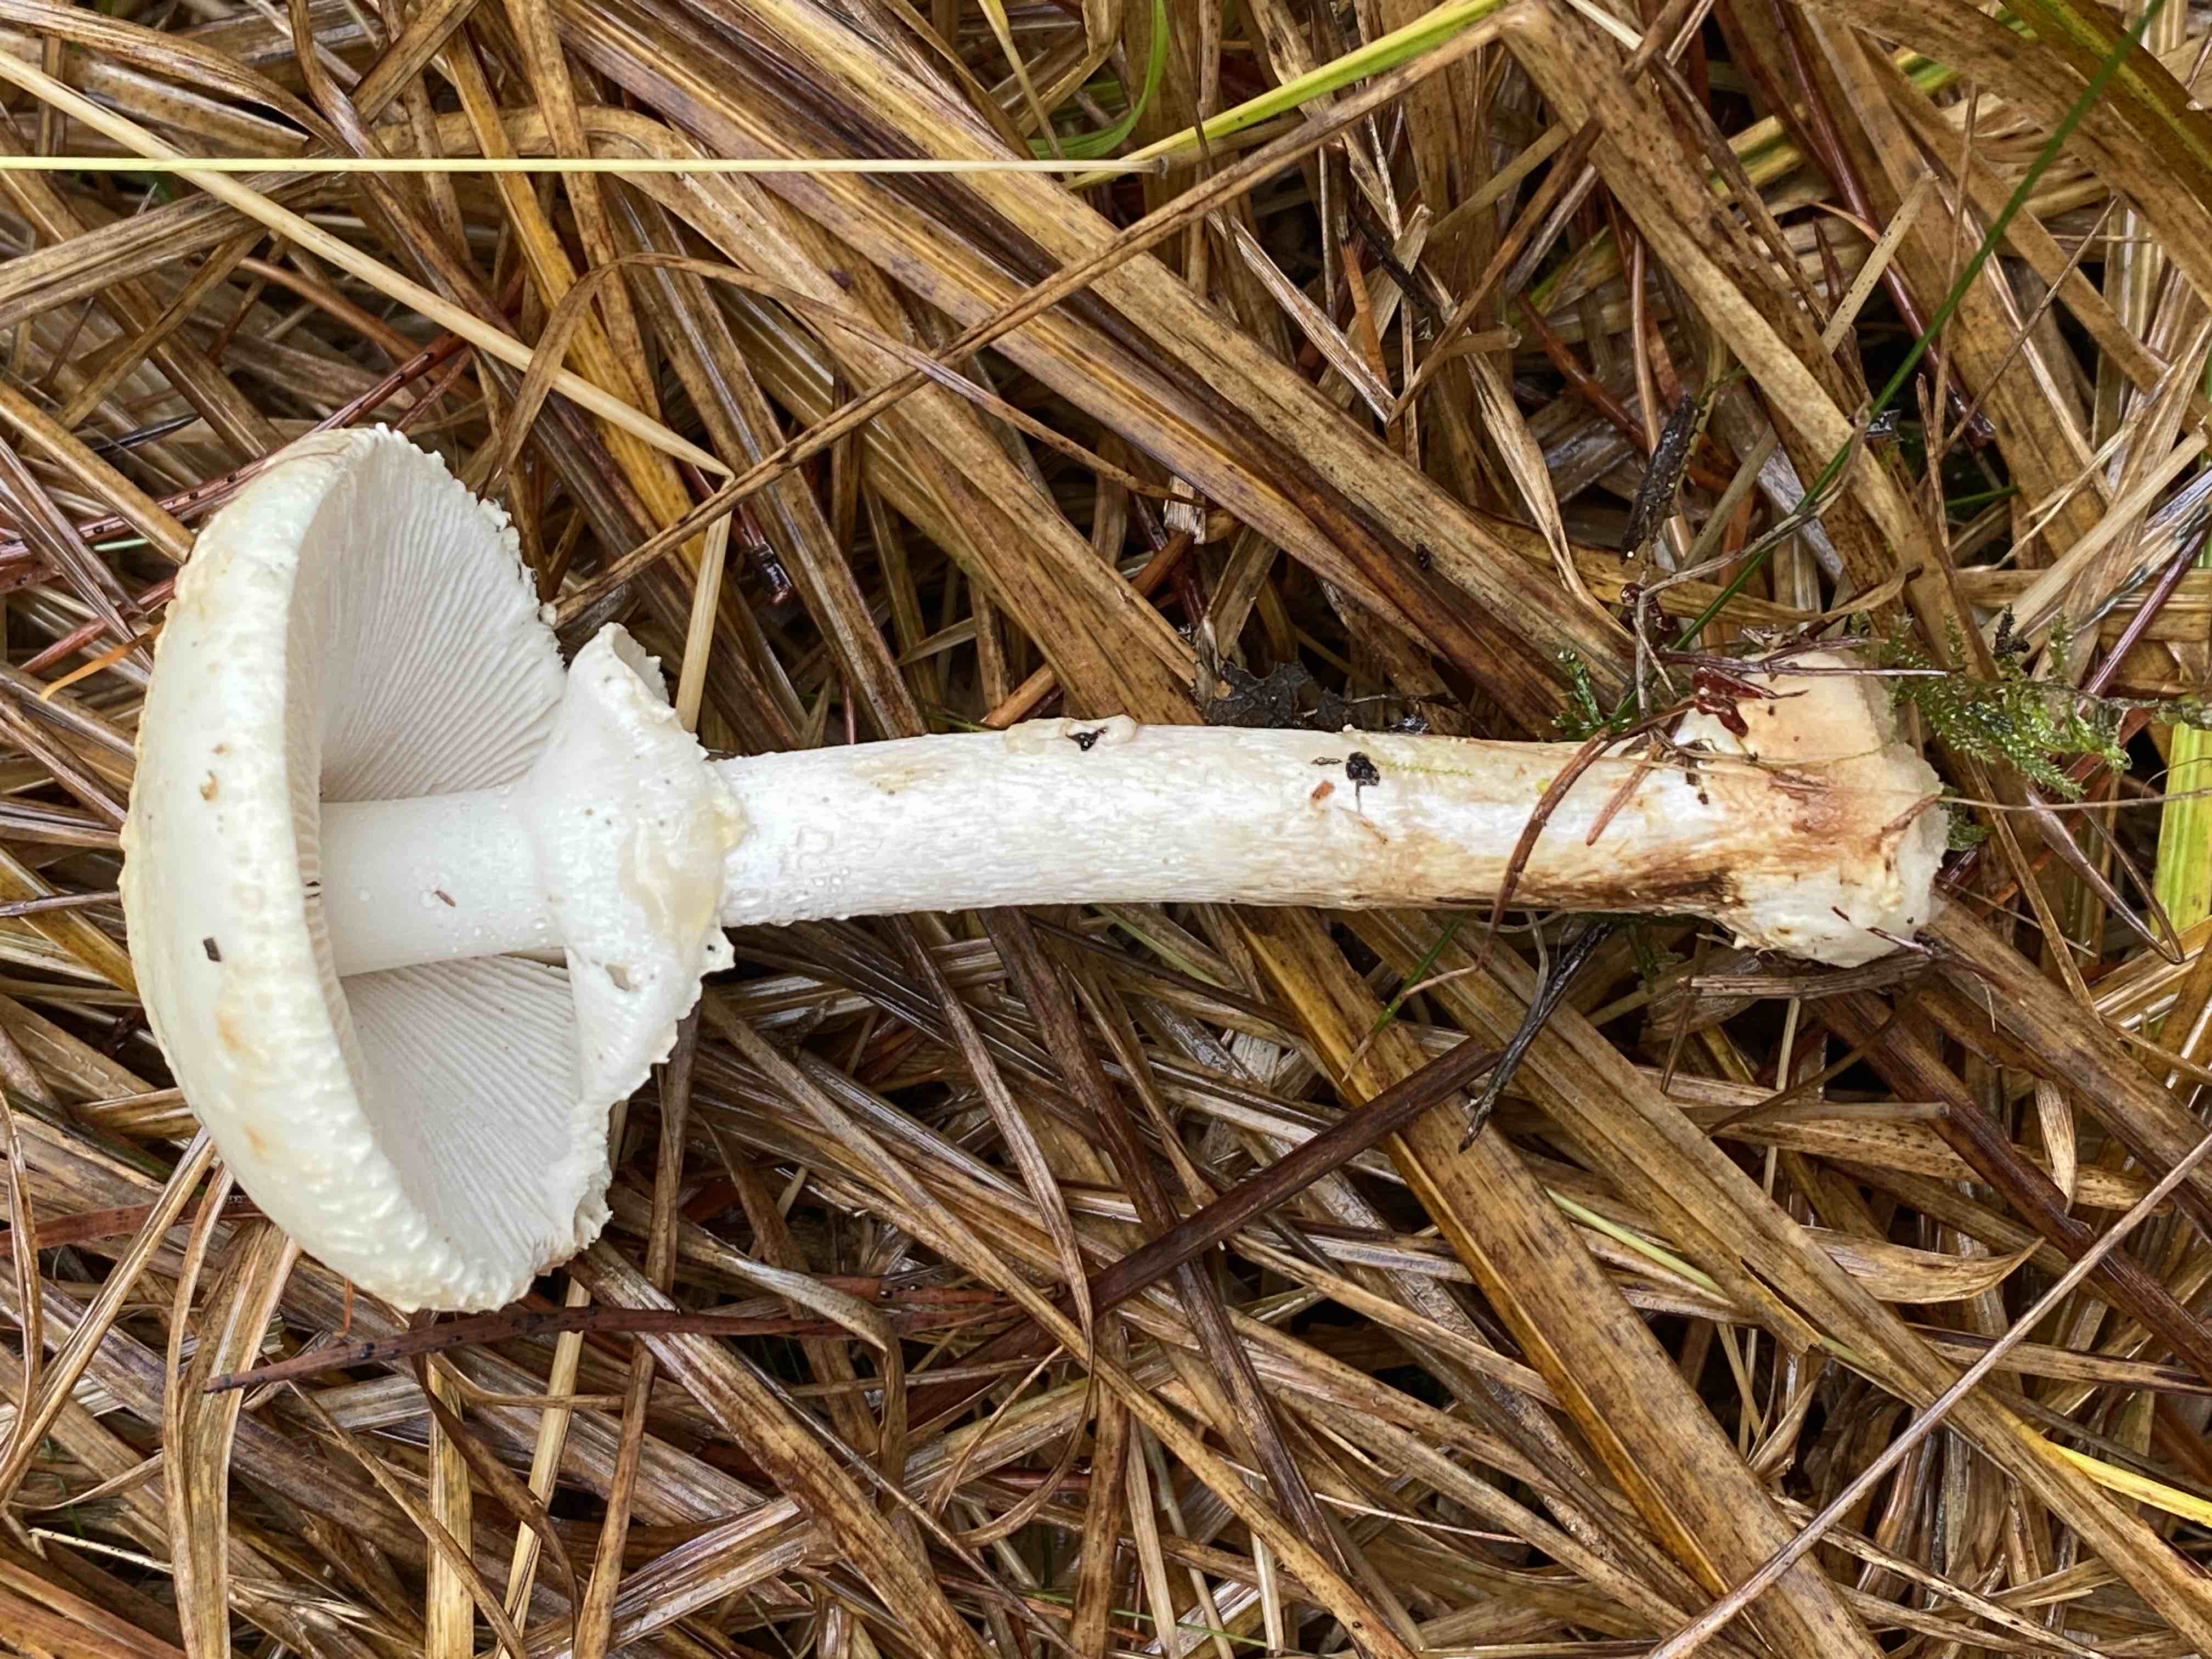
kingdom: Fungi
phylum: Basidiomycota
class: Agaricomycetes
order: Agaricales
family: Amanitaceae
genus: Amanita
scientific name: Amanita citrina
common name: kugleknoldet fluesvamp
